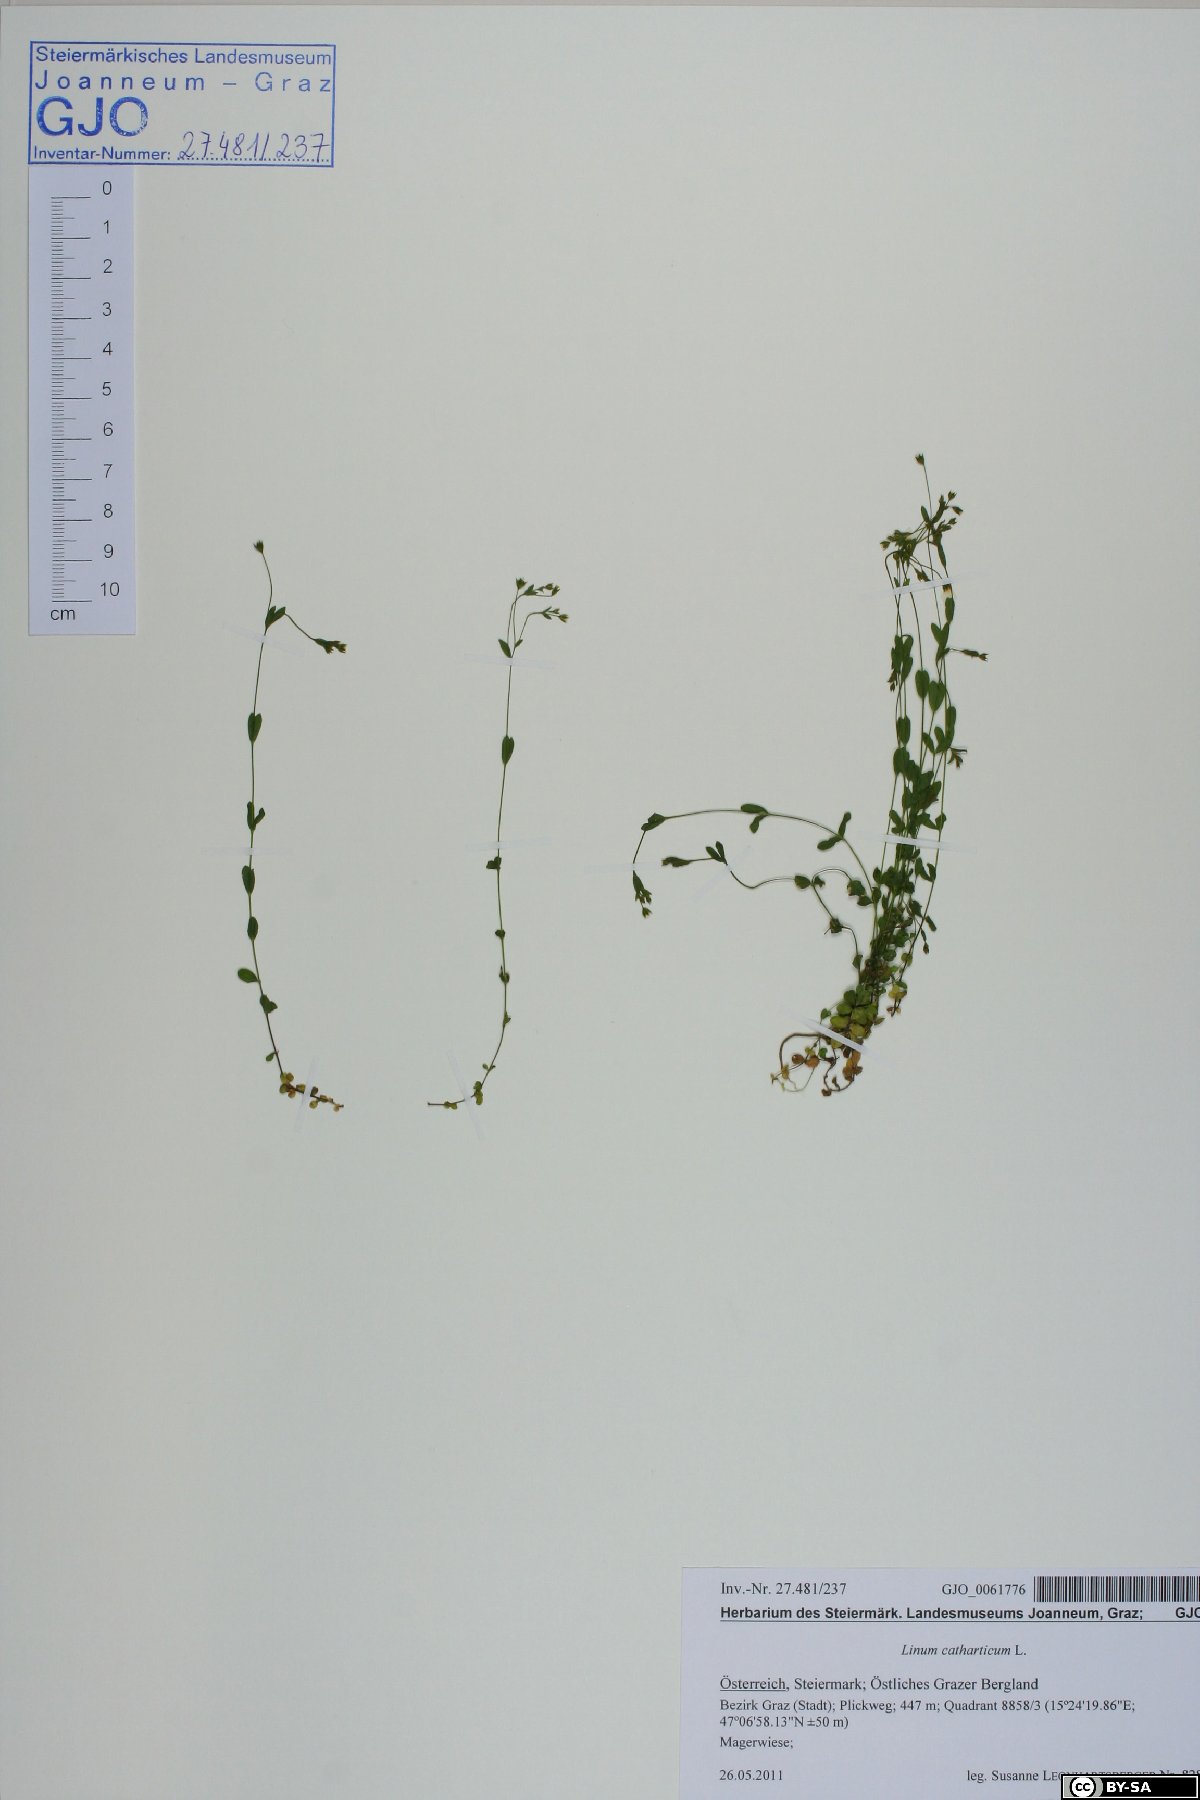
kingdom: Plantae
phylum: Tracheophyta
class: Magnoliopsida
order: Malpighiales
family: Linaceae
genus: Linum
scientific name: Linum catharticum
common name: Fairy flax
